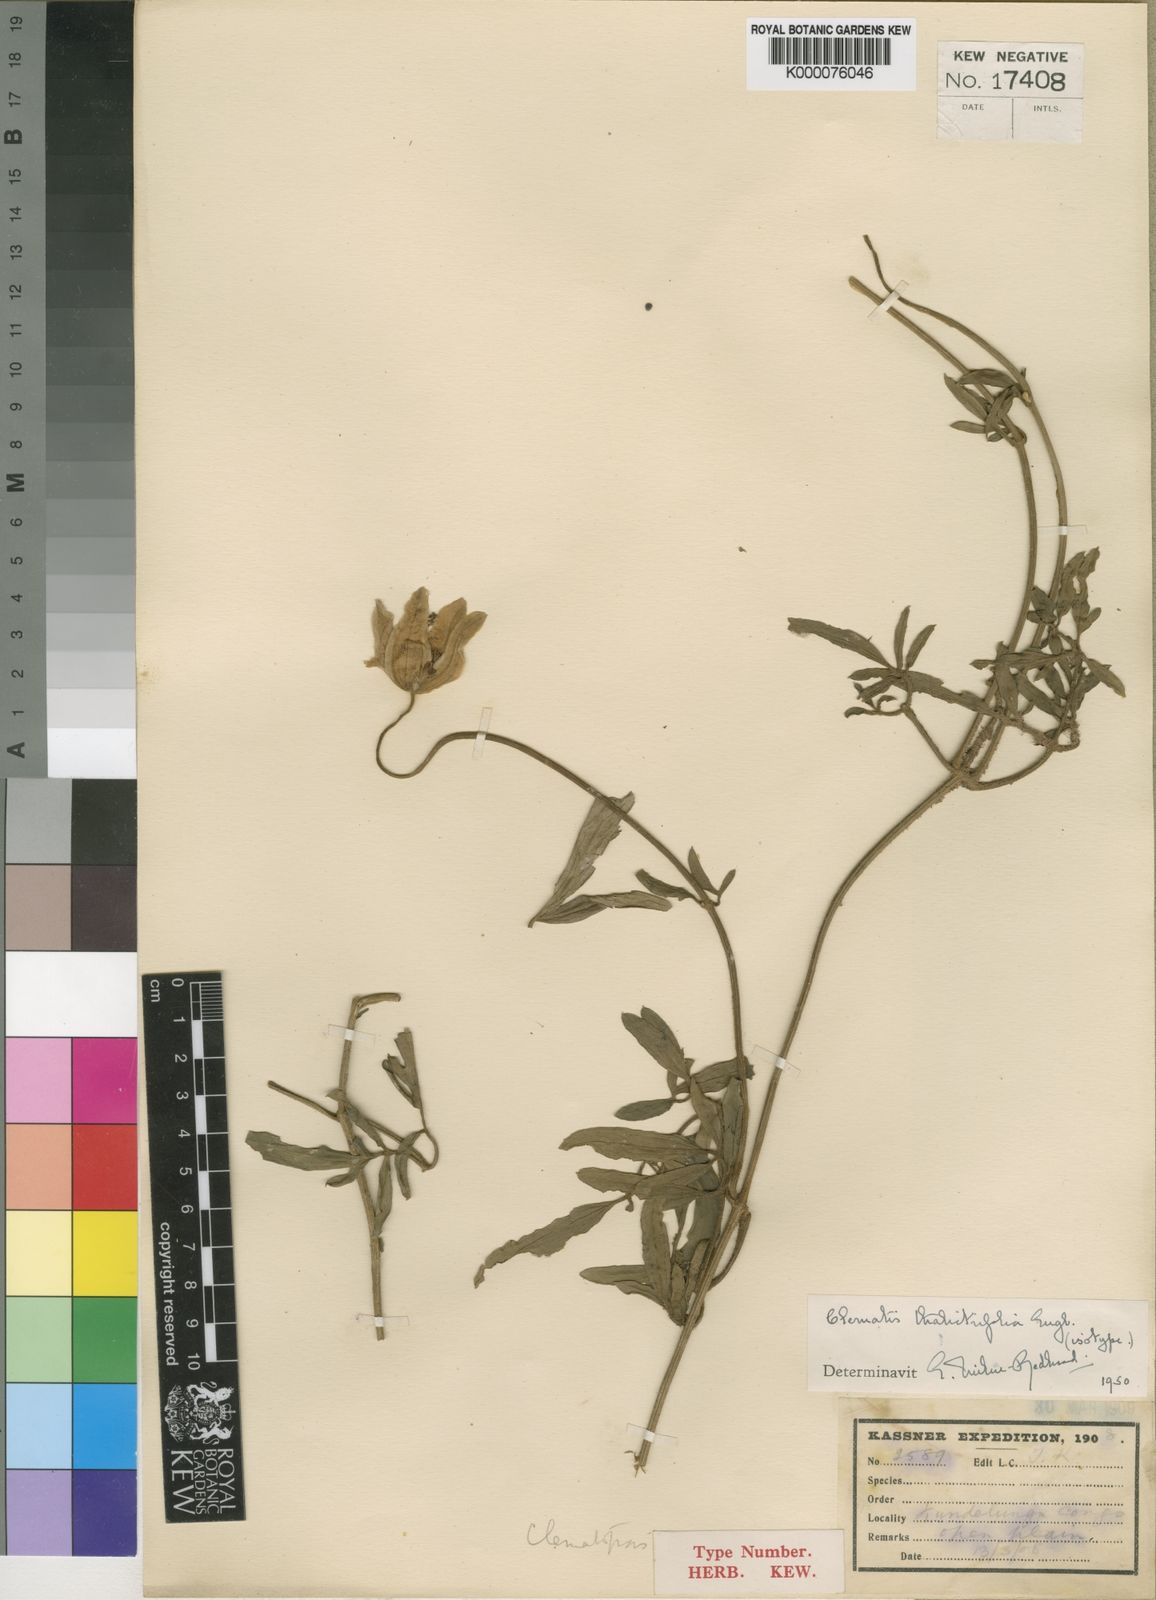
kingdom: Plantae
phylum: Tracheophyta
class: Magnoliopsida
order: Ranunculales
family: Ranunculaceae
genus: Clematis
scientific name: Clematis thalictrifolia
